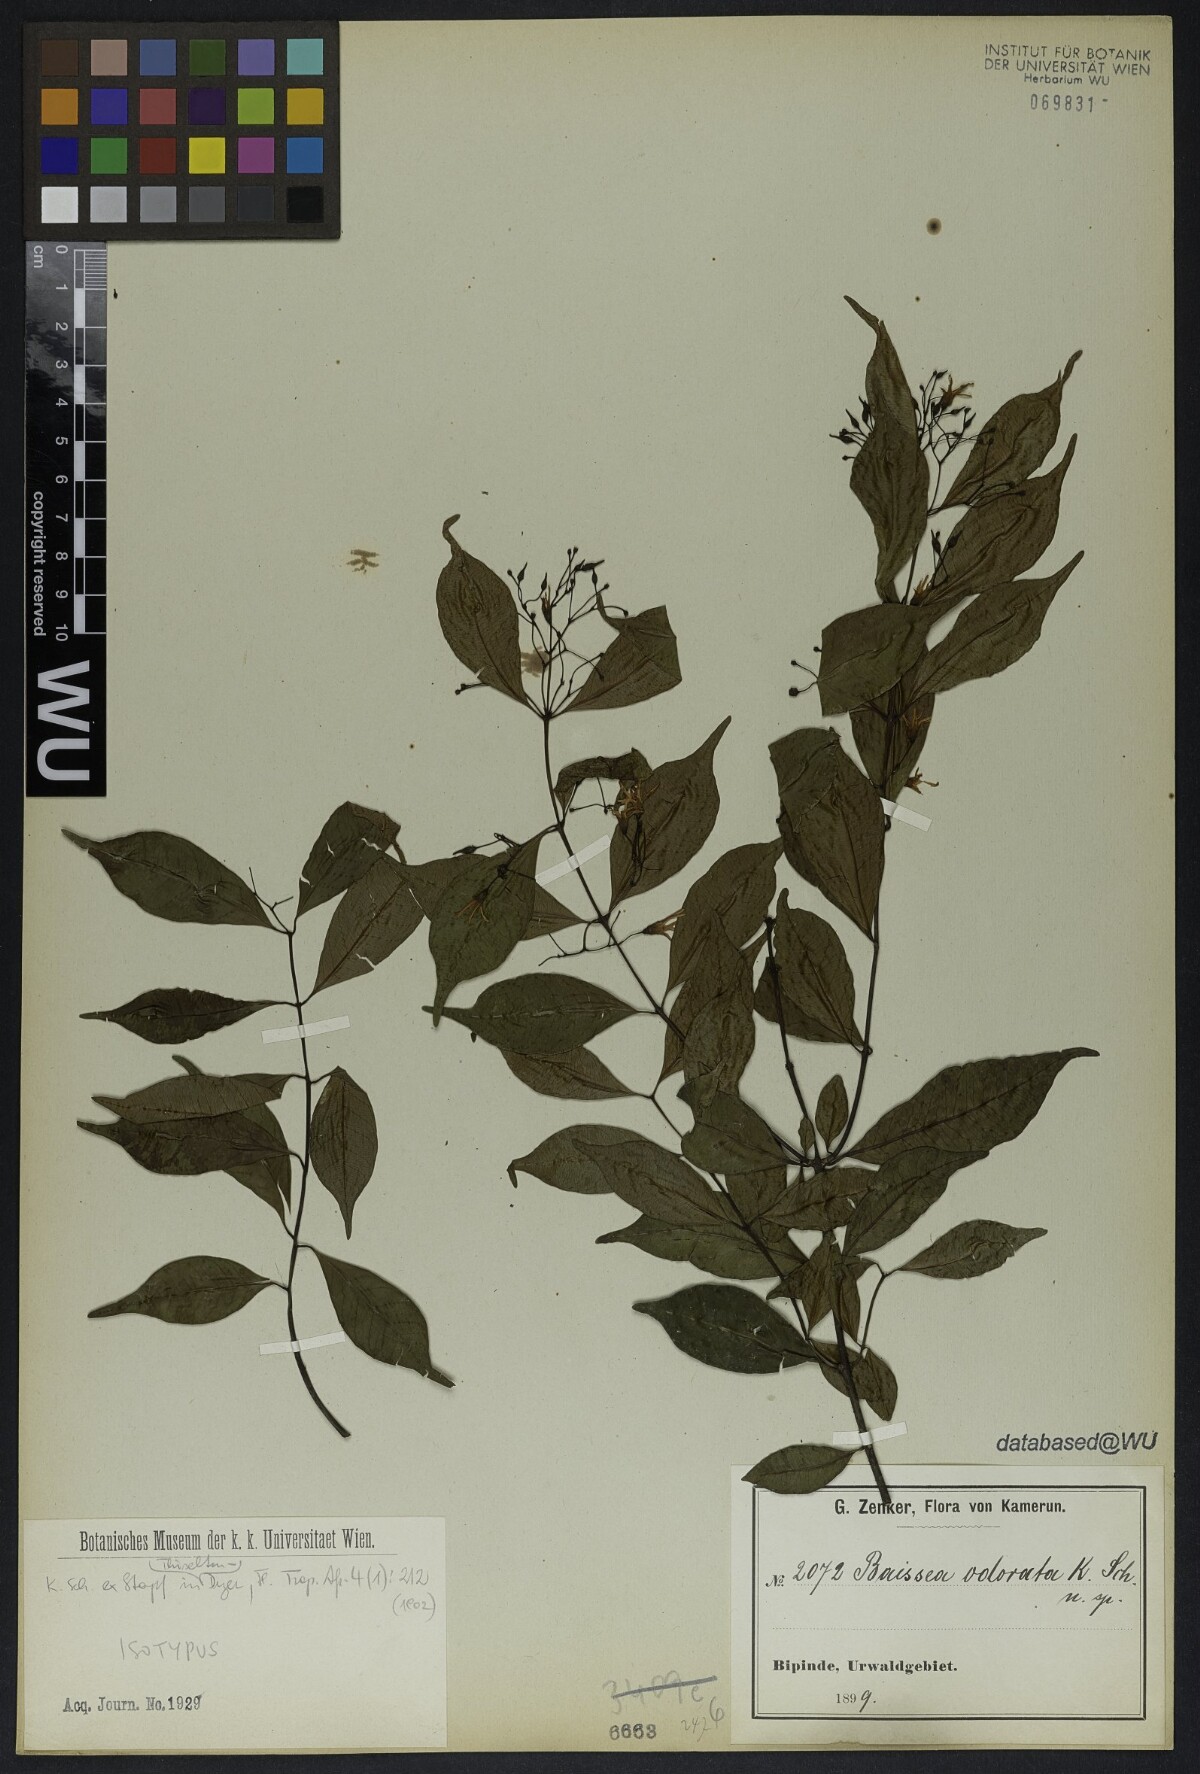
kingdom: Plantae
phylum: Tracheophyta
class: Magnoliopsida
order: Gentianales
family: Apocynaceae
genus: Baissea
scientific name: Baissea leonensis
